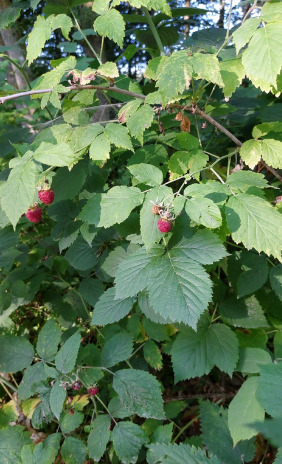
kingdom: Plantae
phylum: Tracheophyta
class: Magnoliopsida
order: Rosales
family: Rosaceae
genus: Rubus
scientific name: Rubus idaeus
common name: Hindbær
